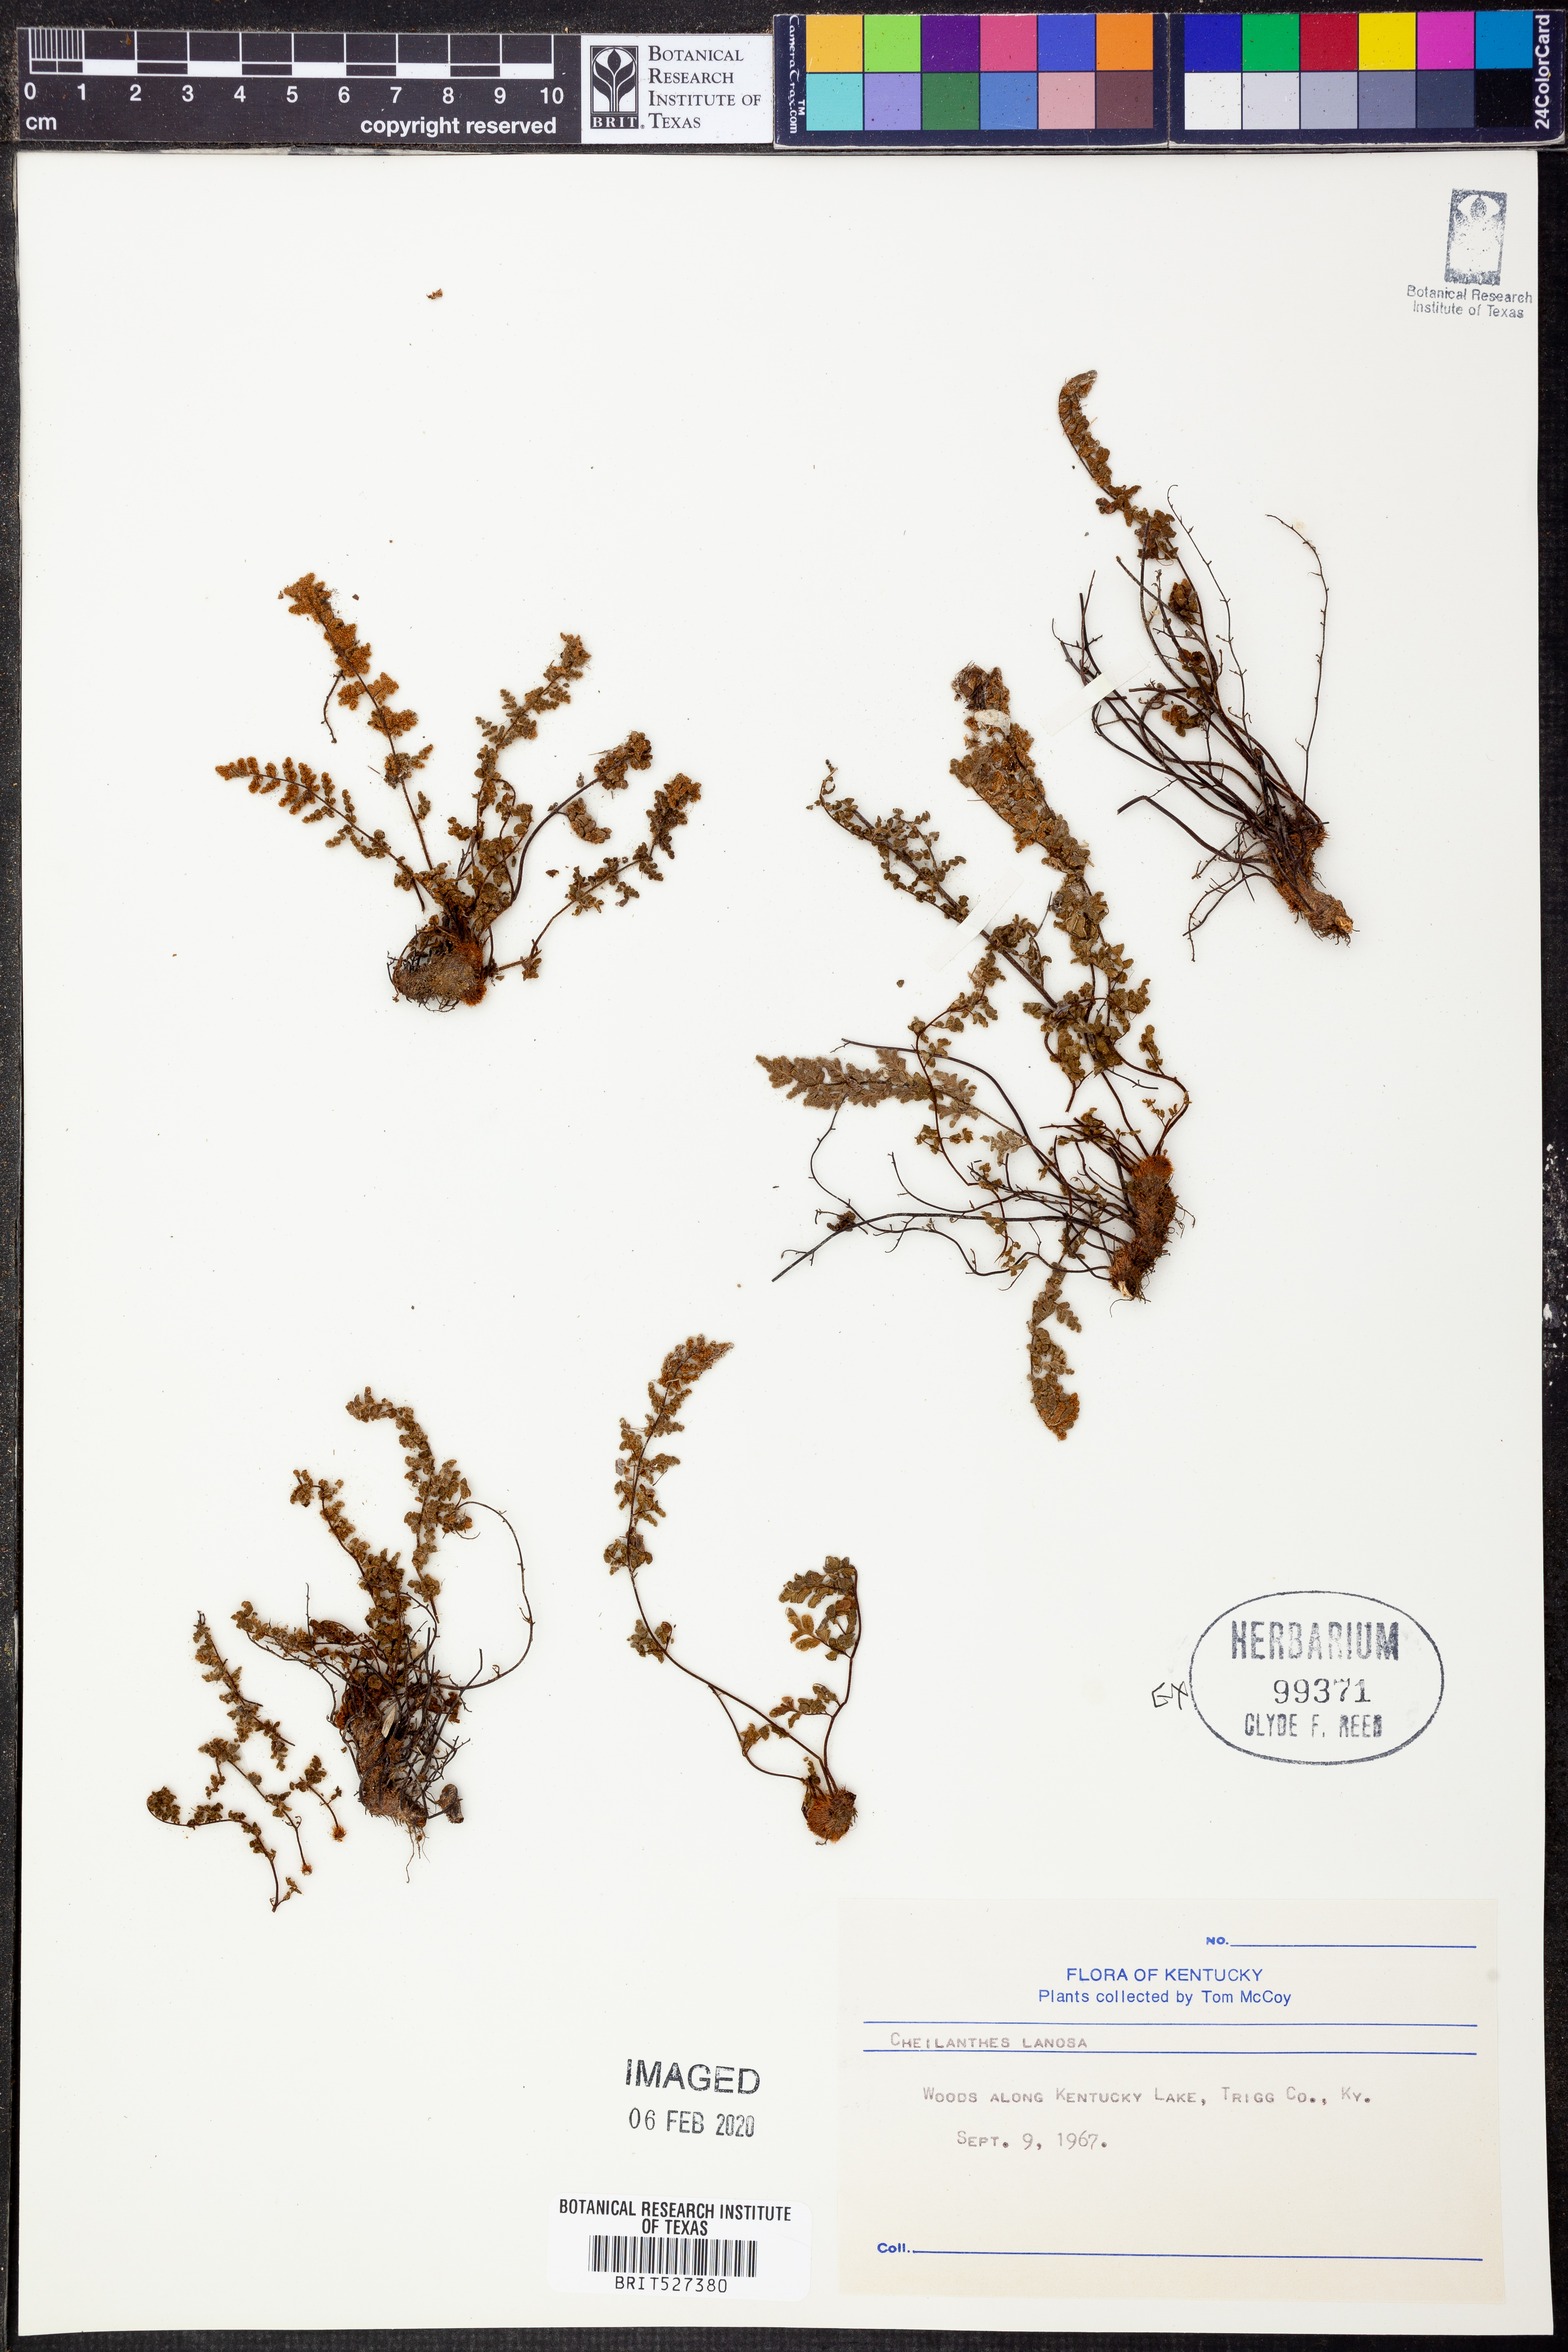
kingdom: Plantae
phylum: Tracheophyta
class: Polypodiopsida
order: Polypodiales
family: Pteridaceae
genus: Myriopteris
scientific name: Myriopteris lanosa
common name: Hairy lip fern
